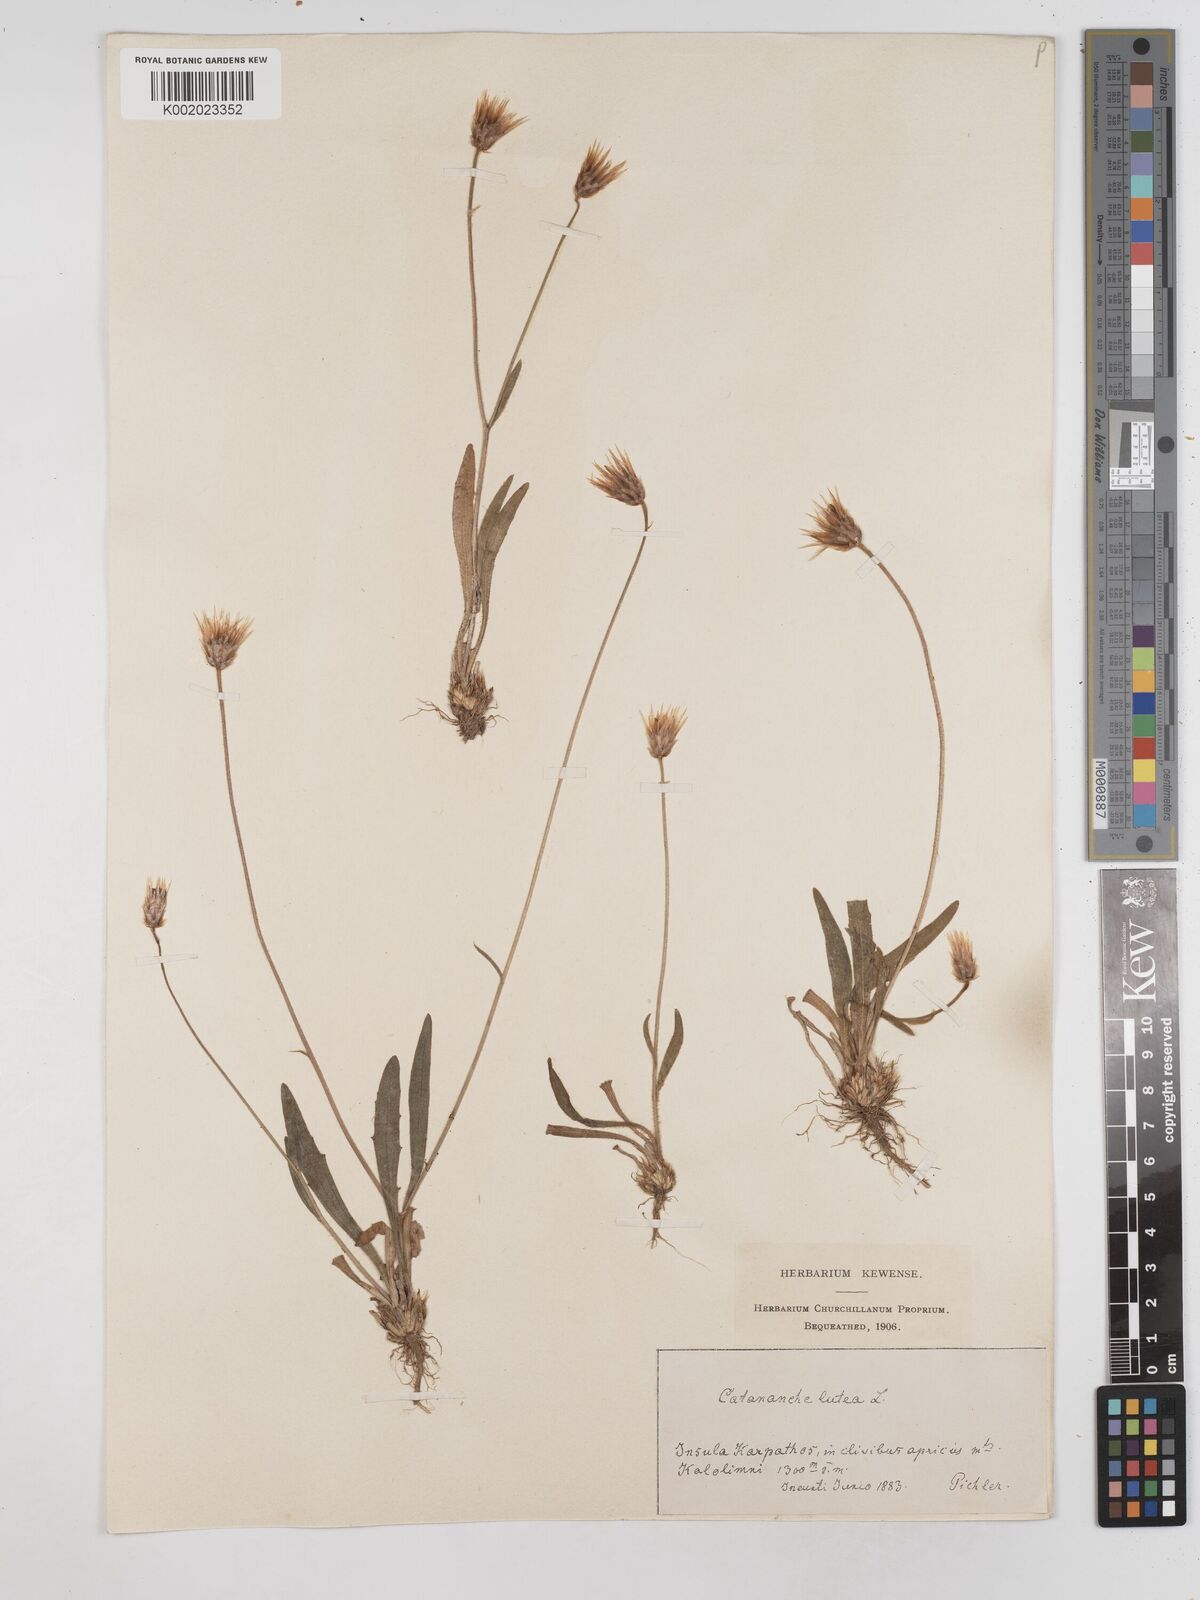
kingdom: Plantae
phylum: Tracheophyta
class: Magnoliopsida
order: Asterales
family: Asteraceae
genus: Catananche
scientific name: Catananche lutea
